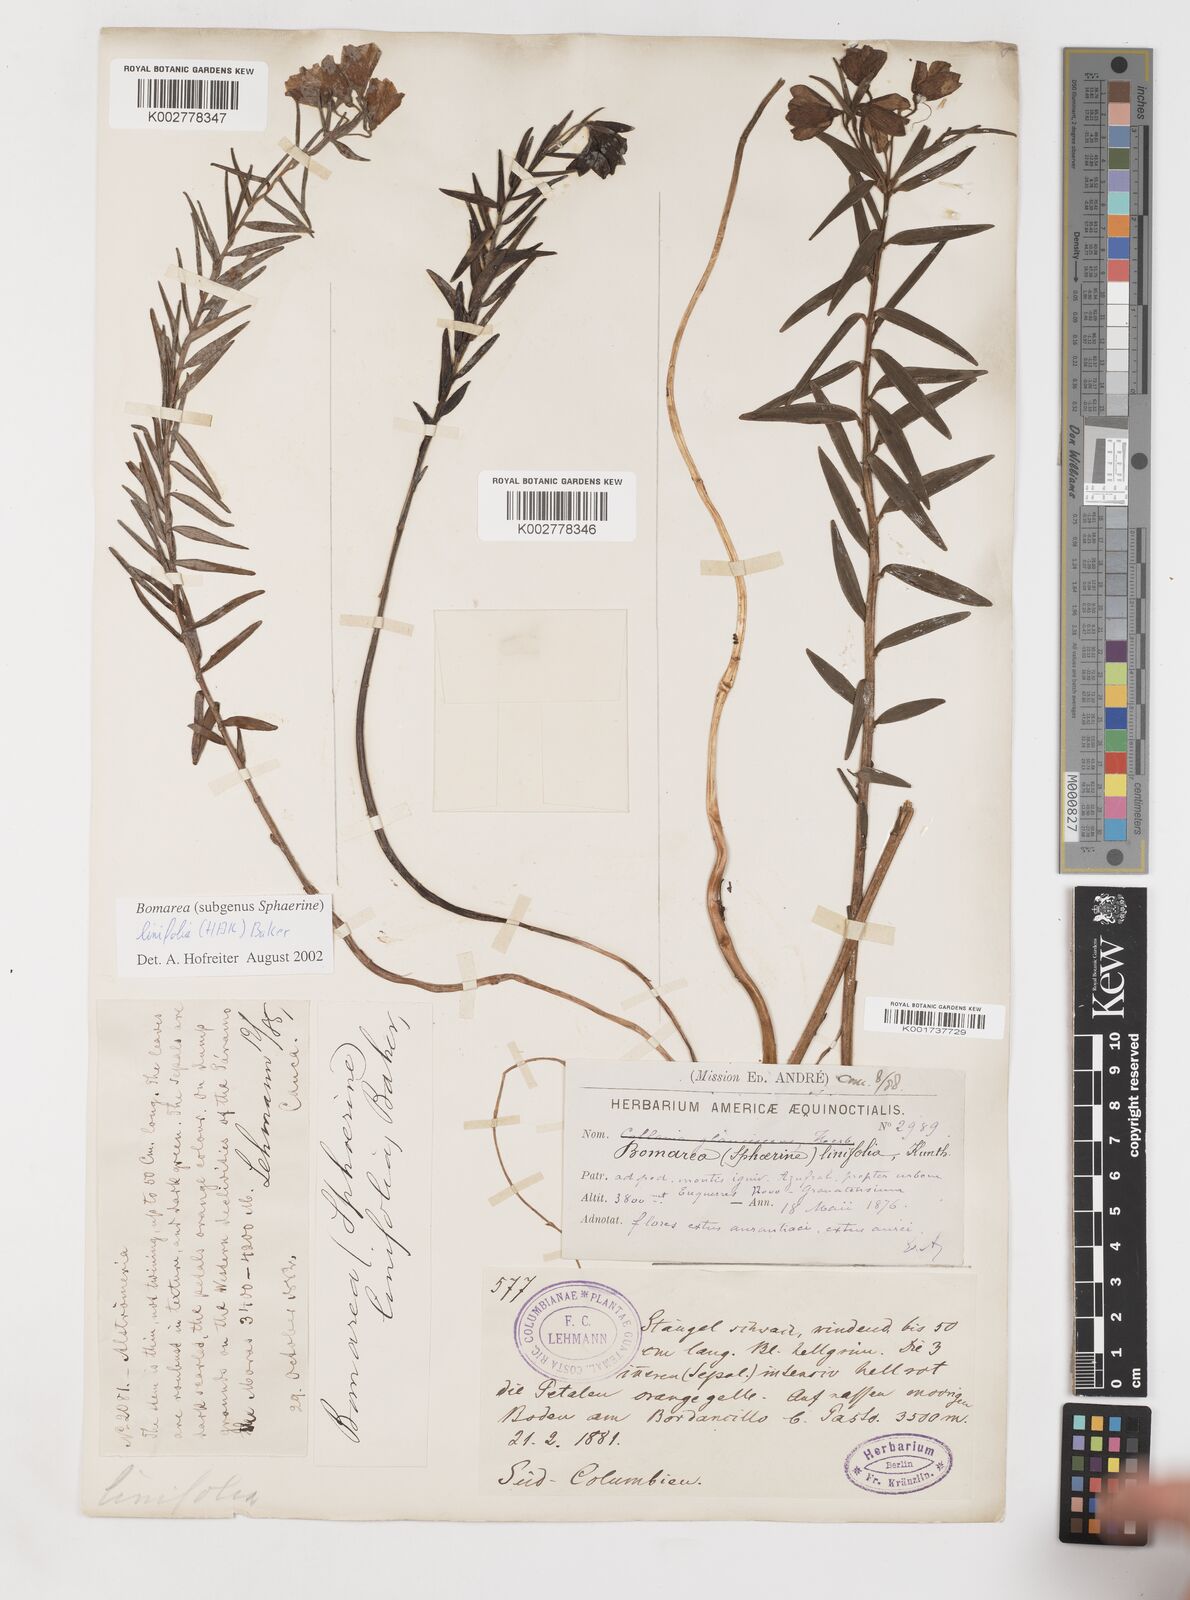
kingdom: Plantae
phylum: Tracheophyta
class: Liliopsida
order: Liliales
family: Alstroemeriaceae
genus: Bomarea
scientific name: Bomarea linifolia
